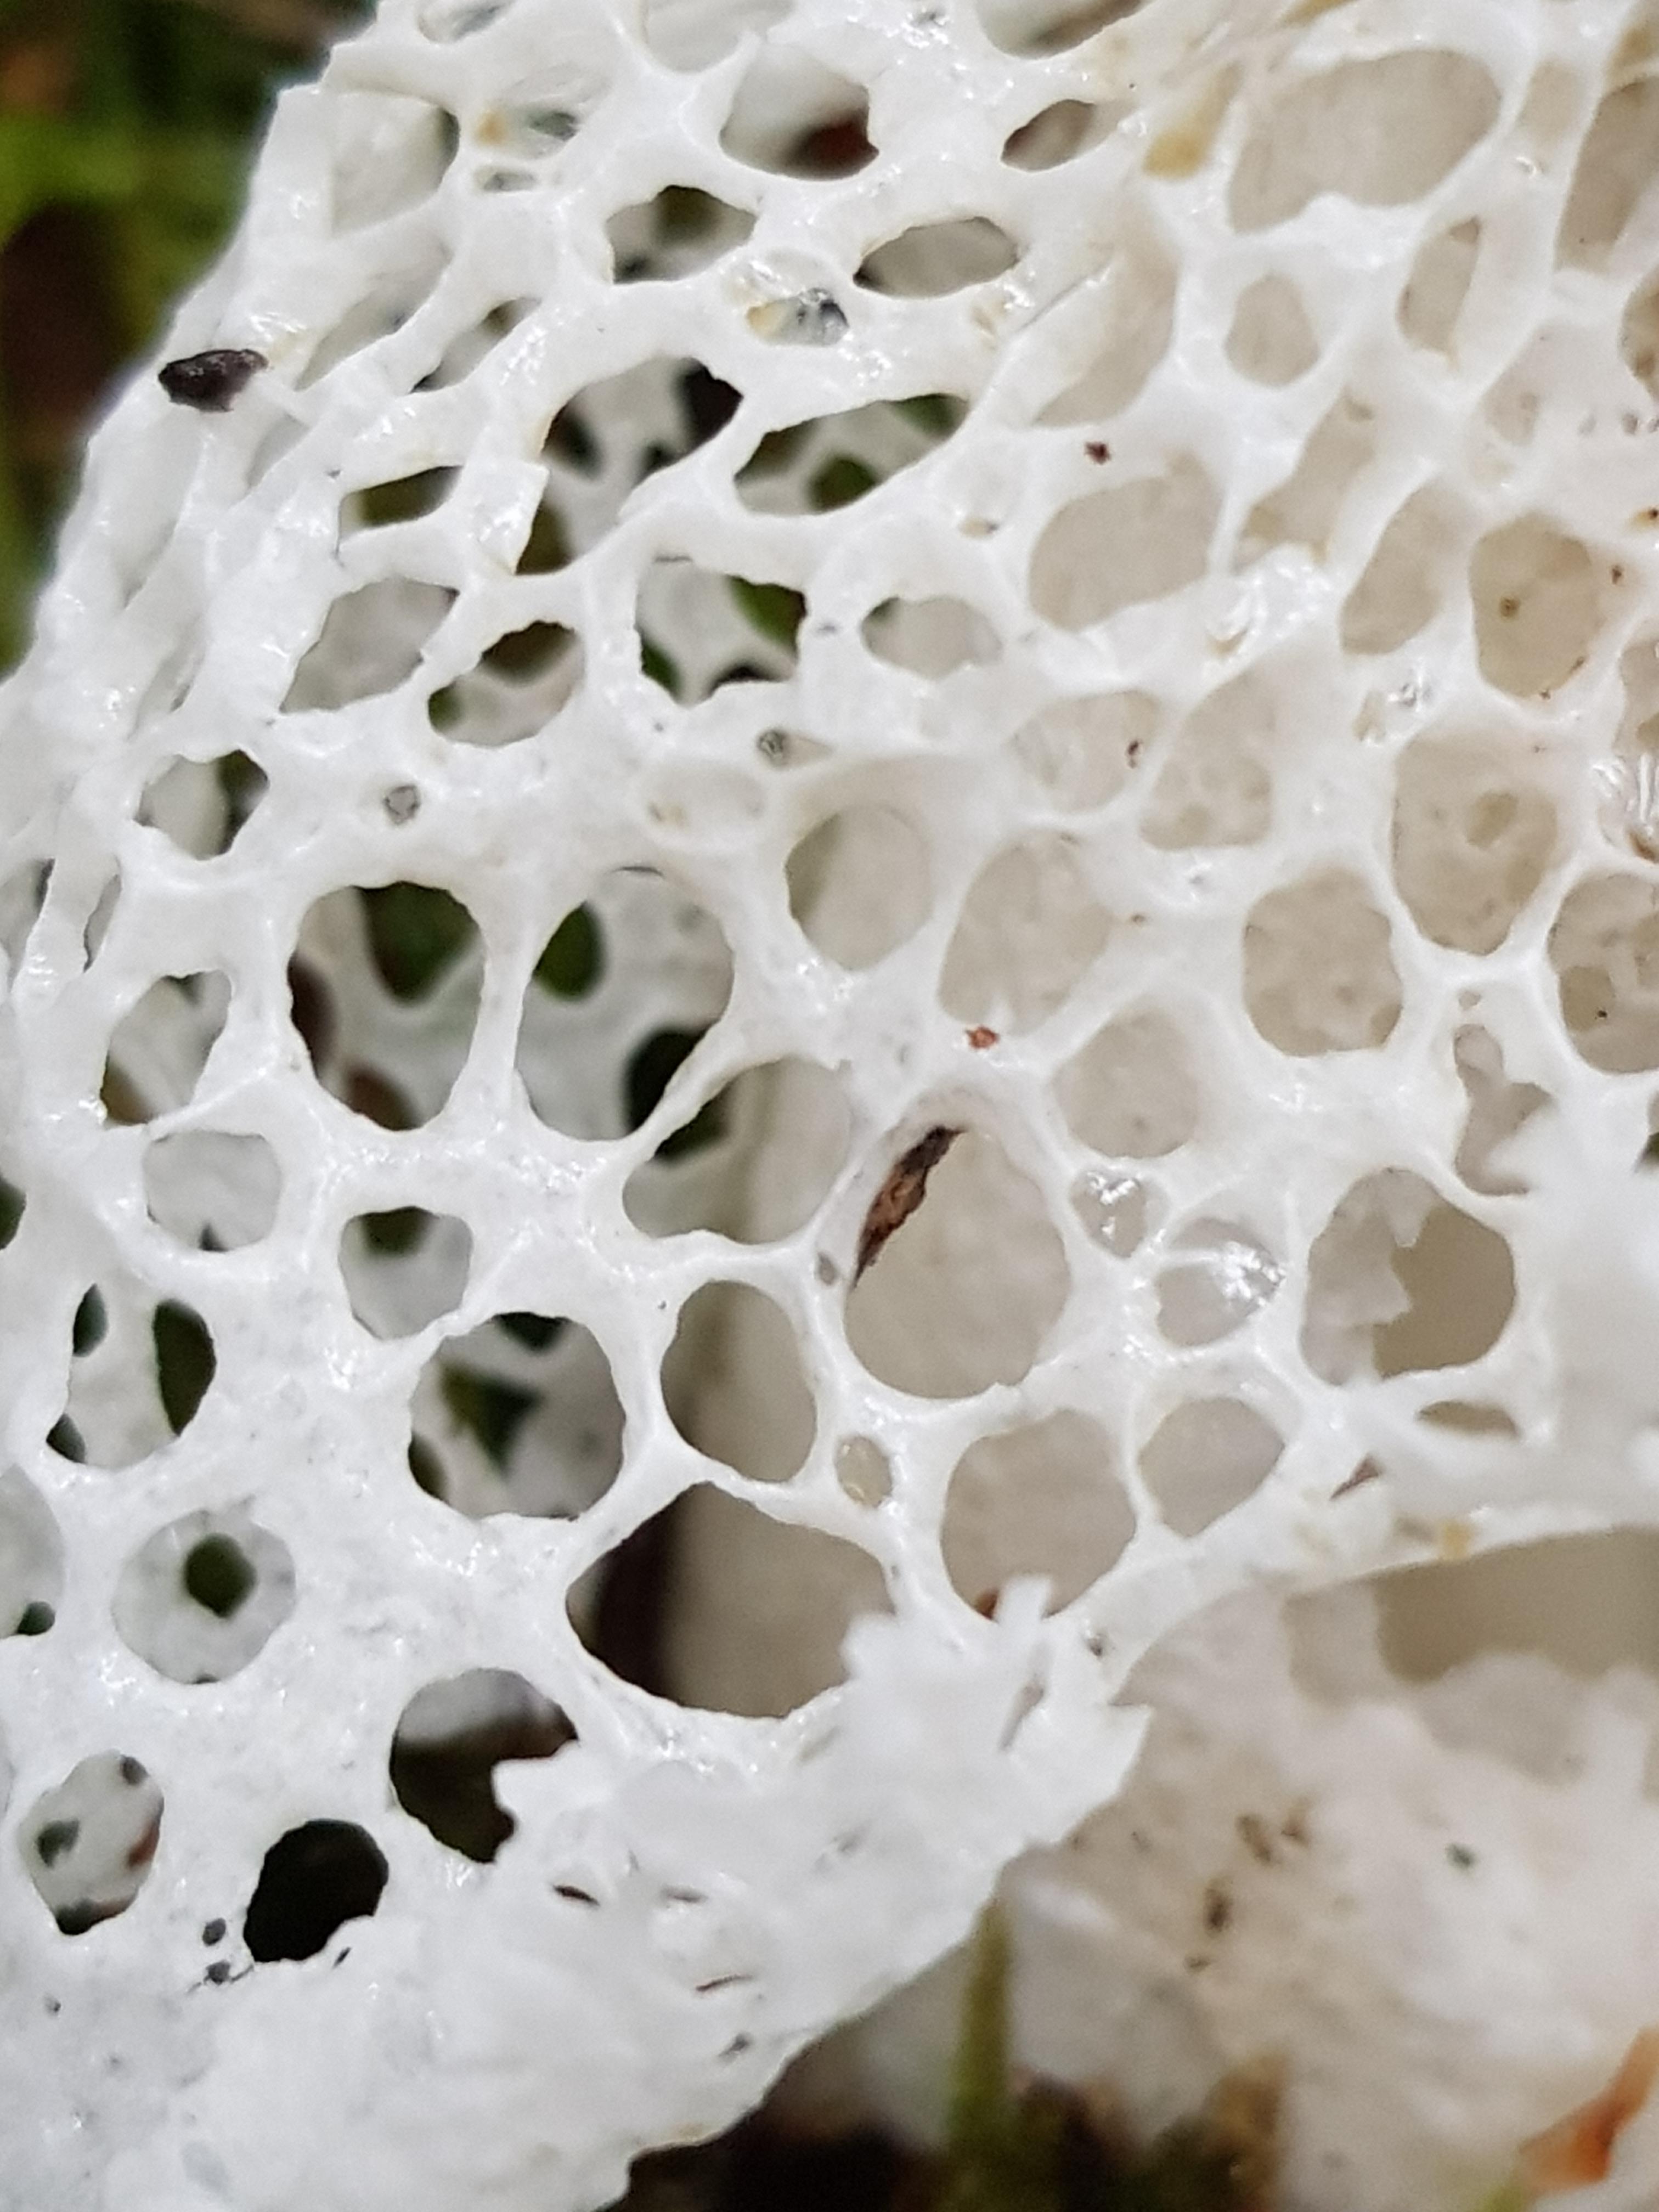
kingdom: Fungi
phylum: Basidiomycota
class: Agaricomycetes
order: Phallales
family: Phallaceae
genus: Phallus
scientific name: Phallus impudicus
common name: Common stinkhorn
